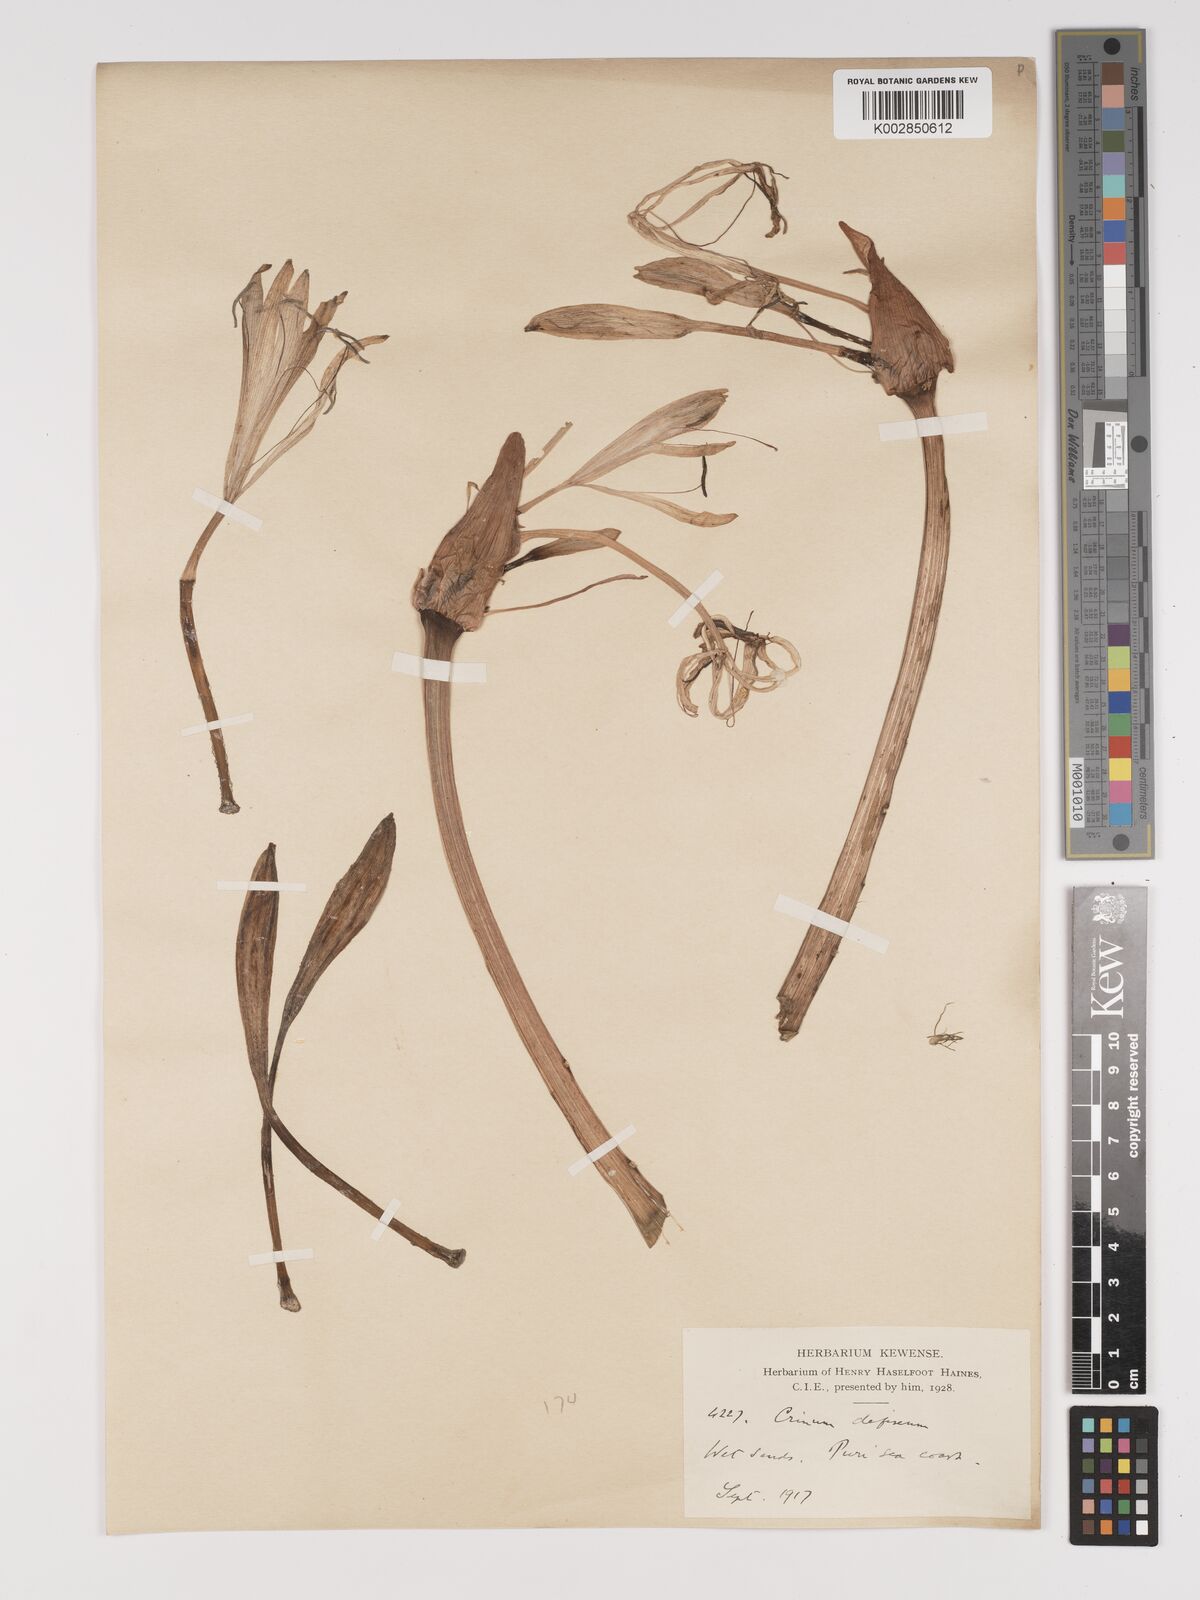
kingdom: Plantae
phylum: Tracheophyta
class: Liliopsida
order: Asparagales
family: Amaryllidaceae
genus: Crinum
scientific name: Crinum defixum
